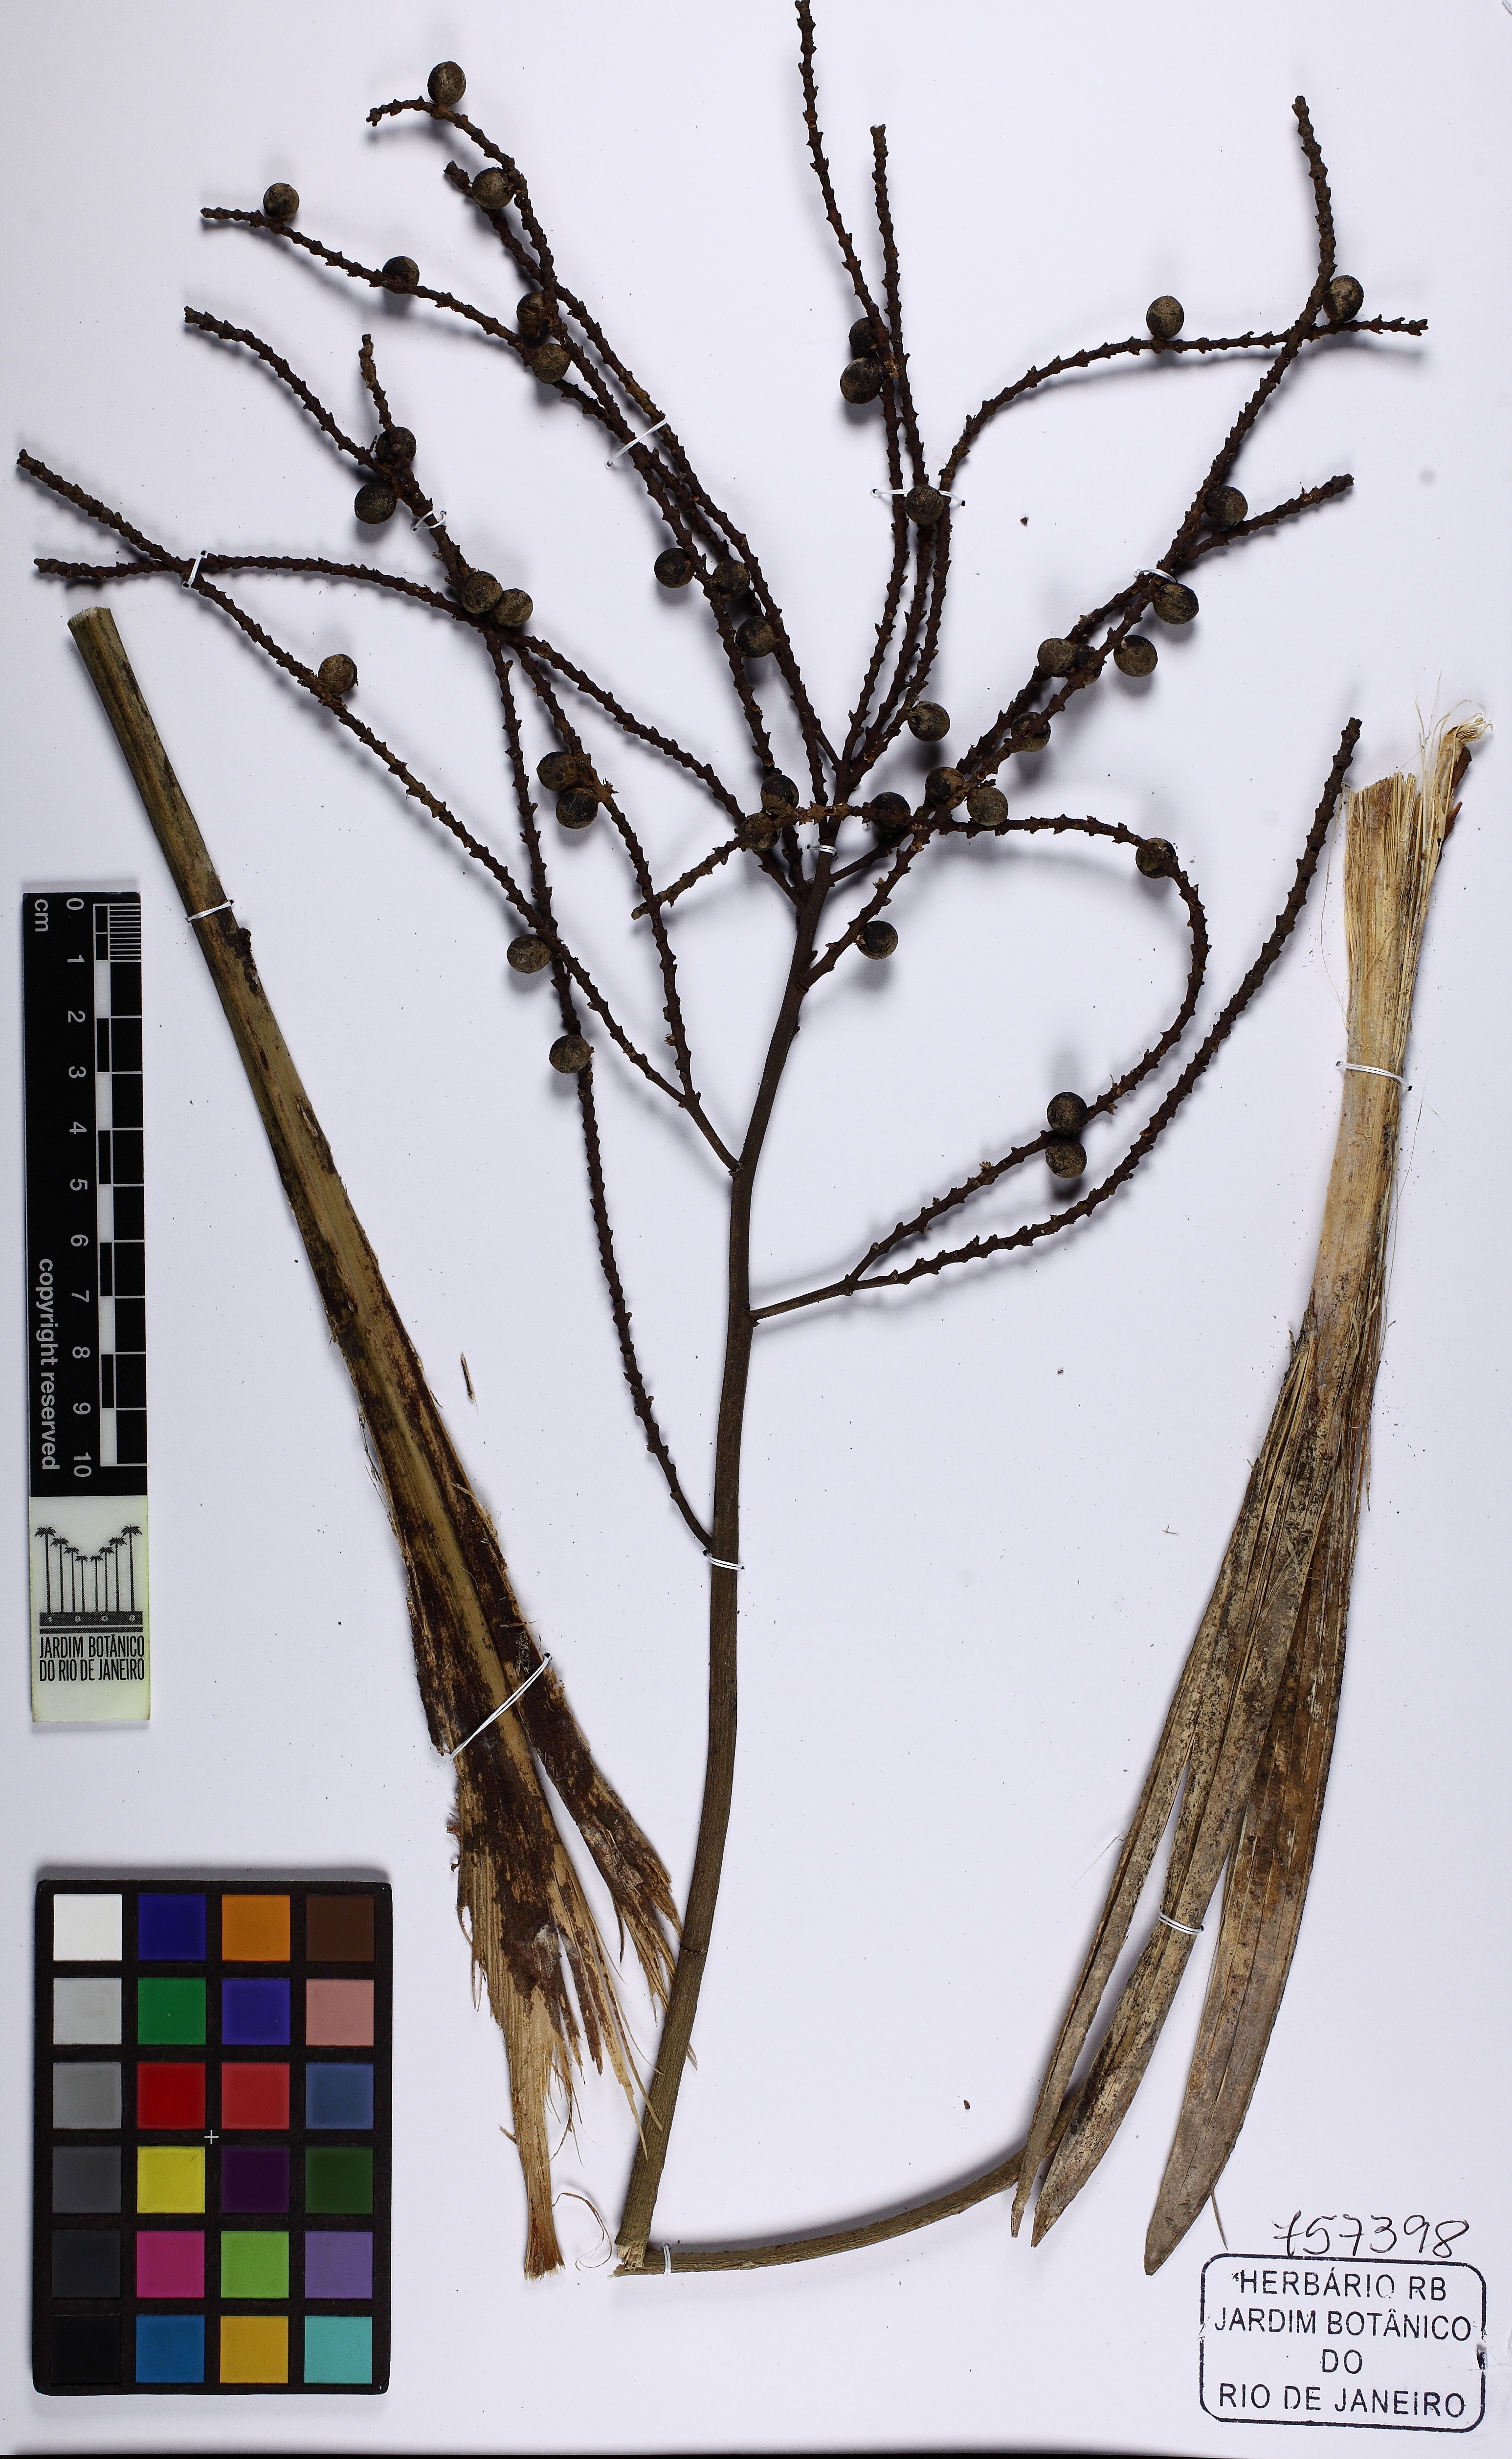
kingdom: Plantae
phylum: Tracheophyta
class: Liliopsida
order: Arecales
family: Arecaceae
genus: Geonoma
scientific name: Geonoma schottiana
